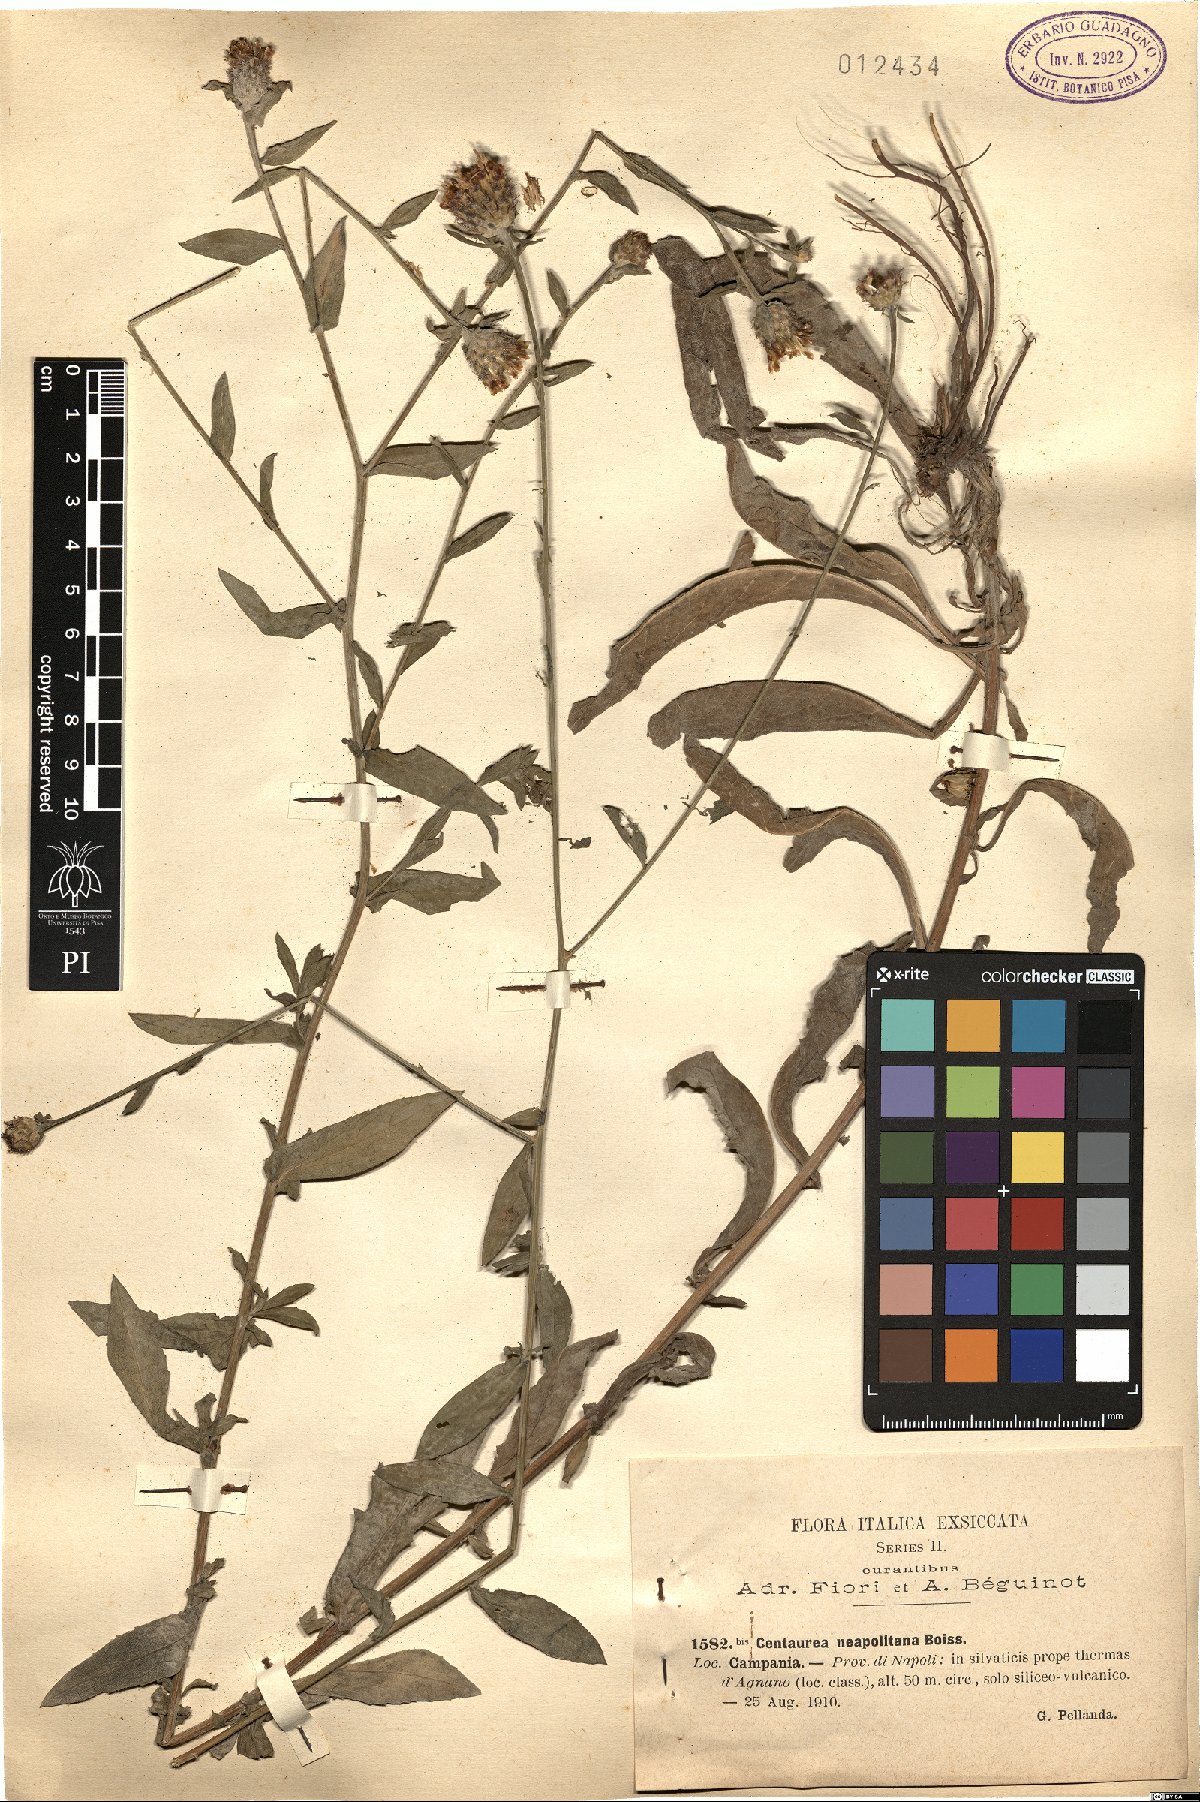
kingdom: Plantae
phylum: Tracheophyta
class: Magnoliopsida
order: Asterales
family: Asteraceae
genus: Centaurea
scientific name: Centaurea nigrescens
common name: Tyrol knapweed
